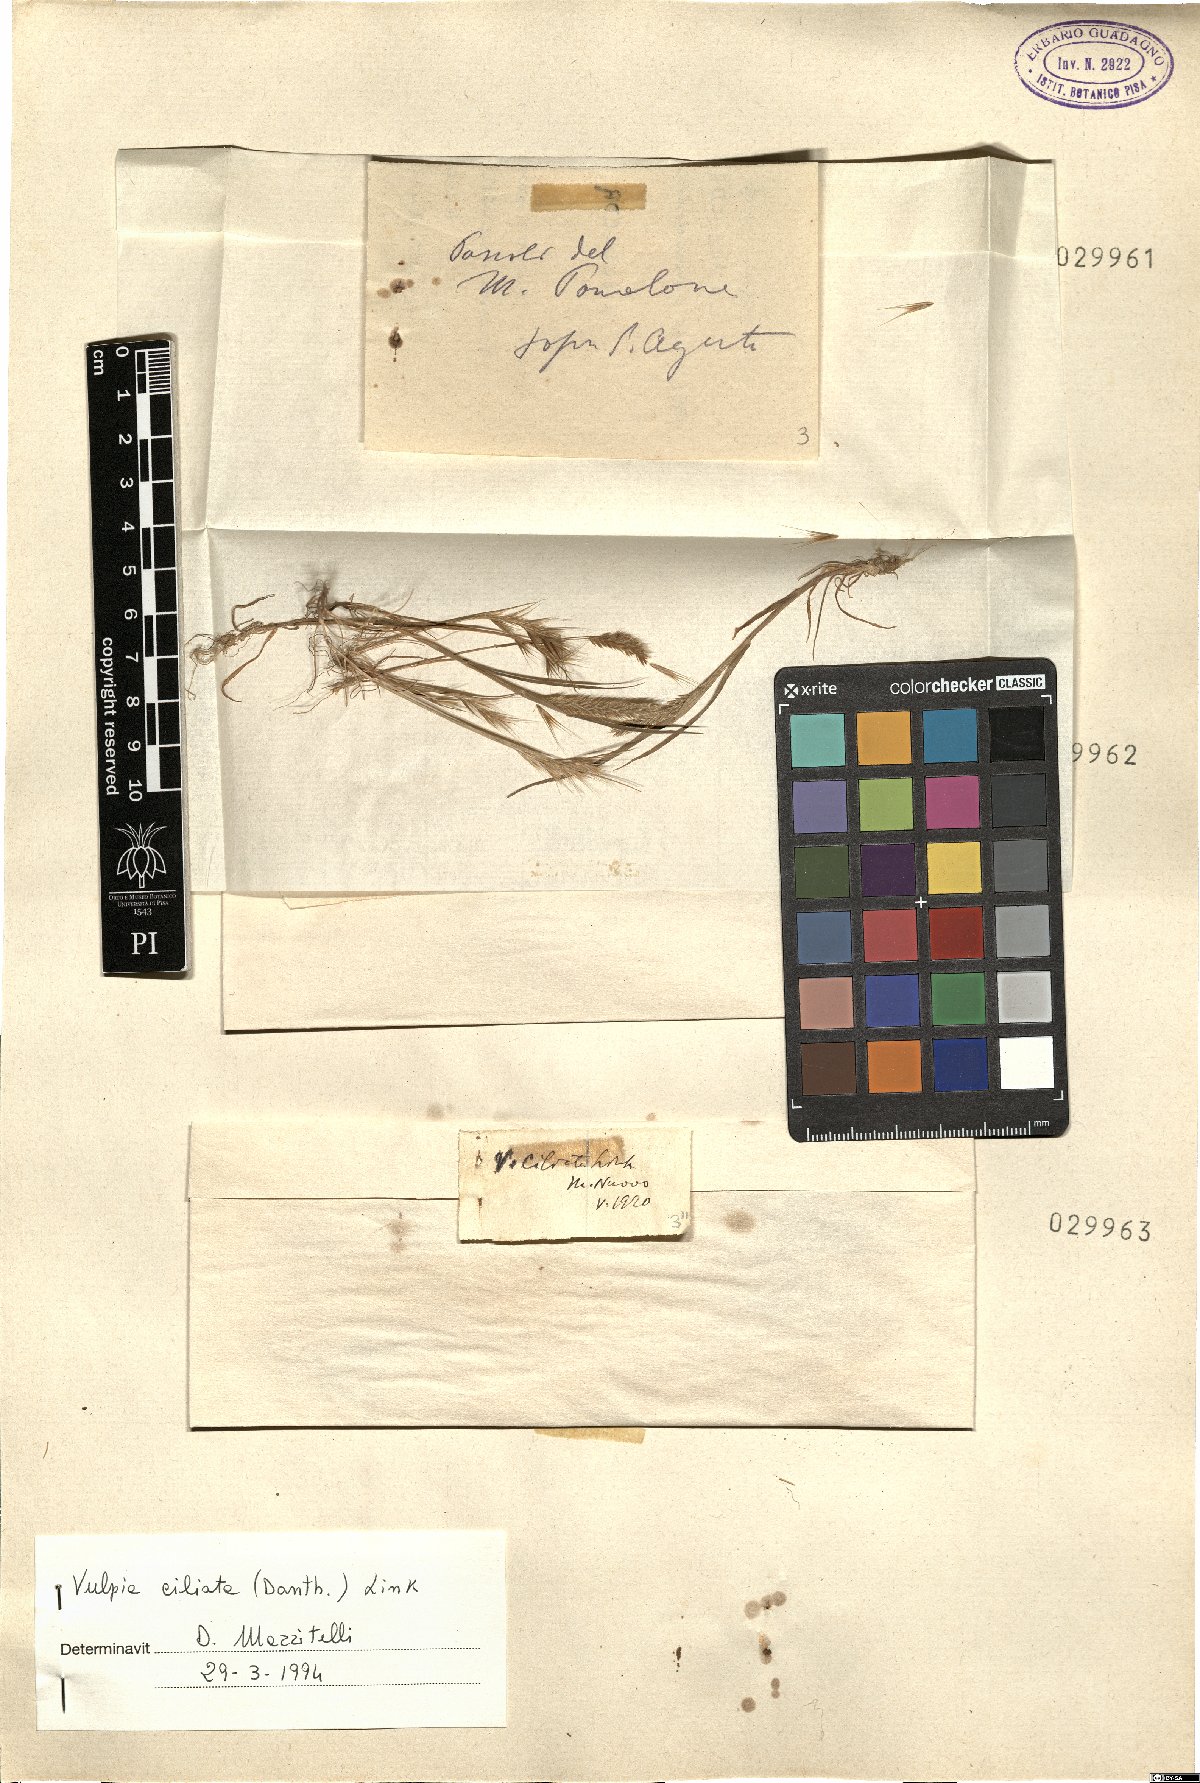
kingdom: Plantae
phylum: Tracheophyta
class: Liliopsida
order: Poales
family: Poaceae
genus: Festuca
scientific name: Festuca ambigua
